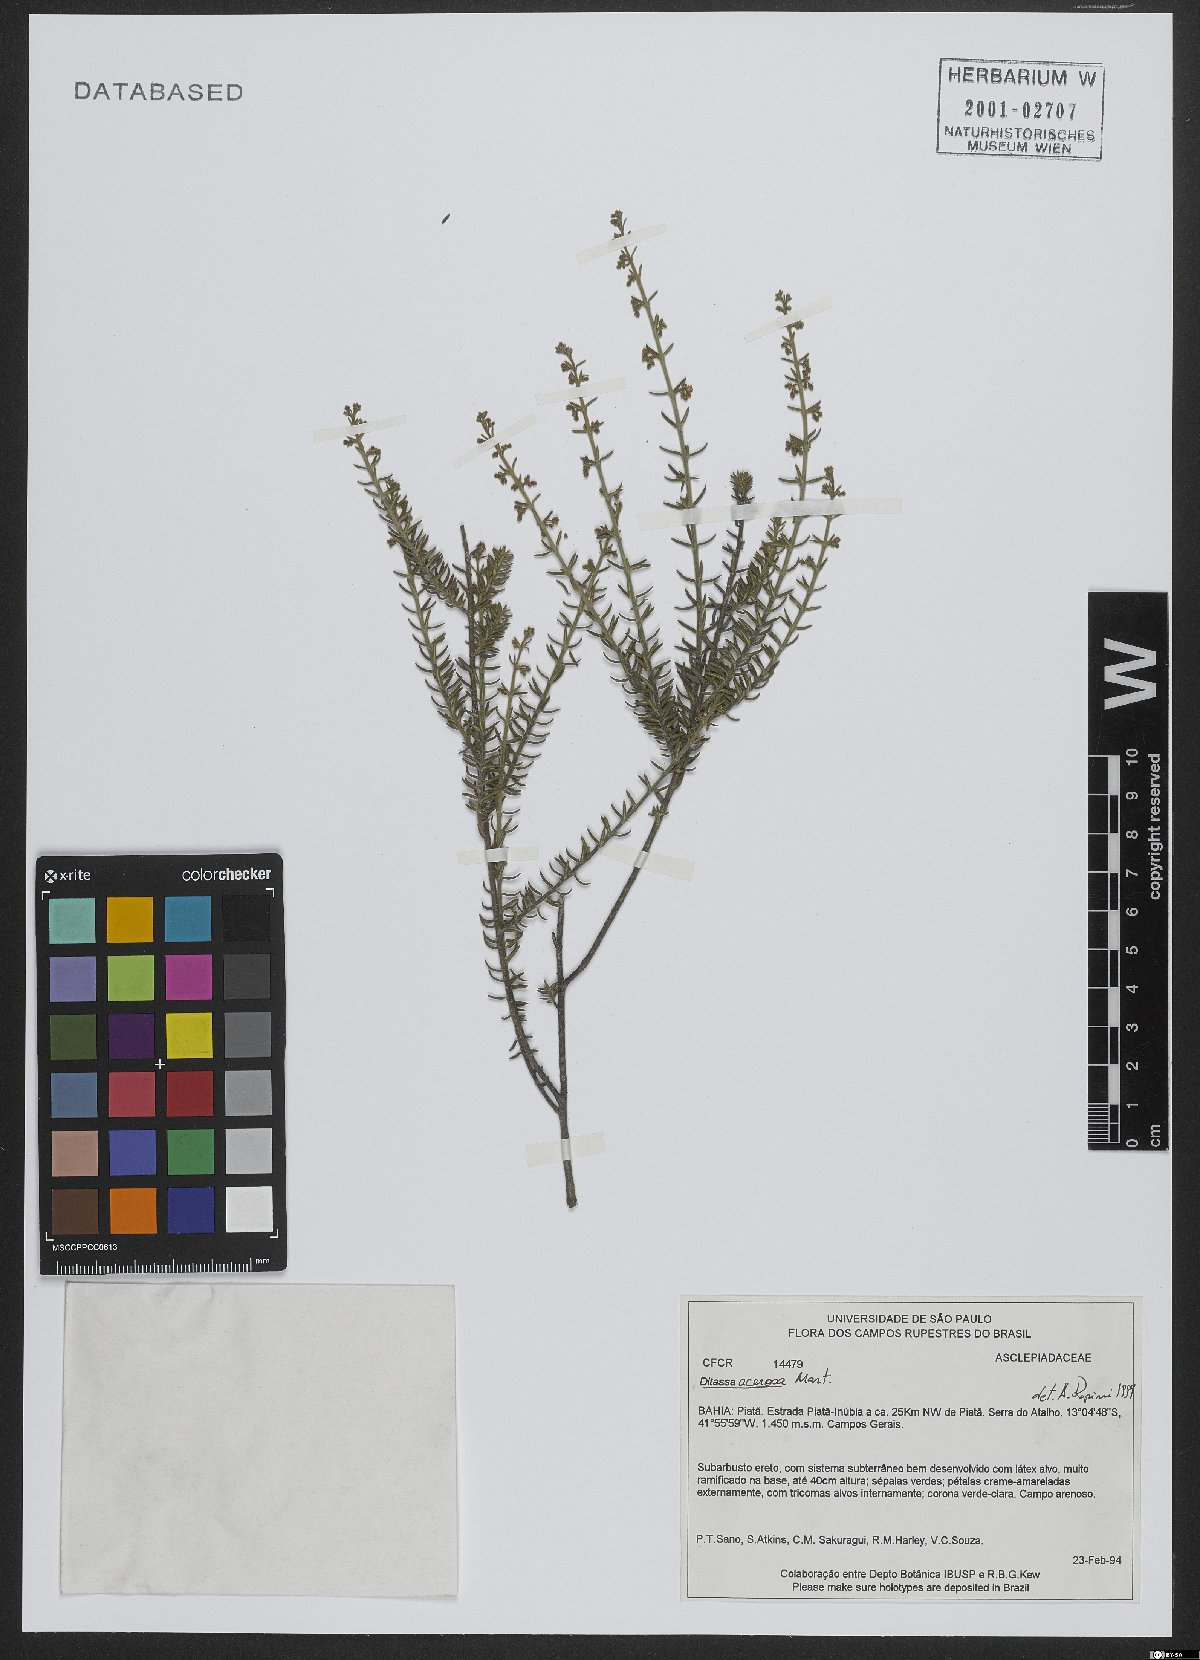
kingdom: Plantae
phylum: Tracheophyta
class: Magnoliopsida
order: Gentianales
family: Apocynaceae
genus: Minaria
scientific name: Minaria acerosa
